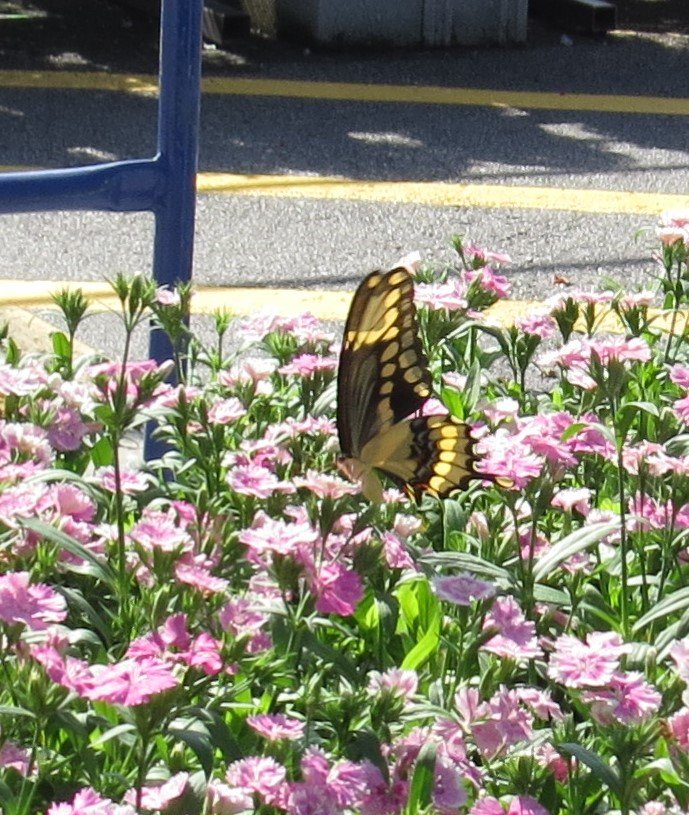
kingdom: Animalia
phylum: Arthropoda
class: Insecta
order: Lepidoptera
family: Papilionidae
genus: Papilio
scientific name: Papilio cresphontes
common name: Eastern Giant Swallowtail
